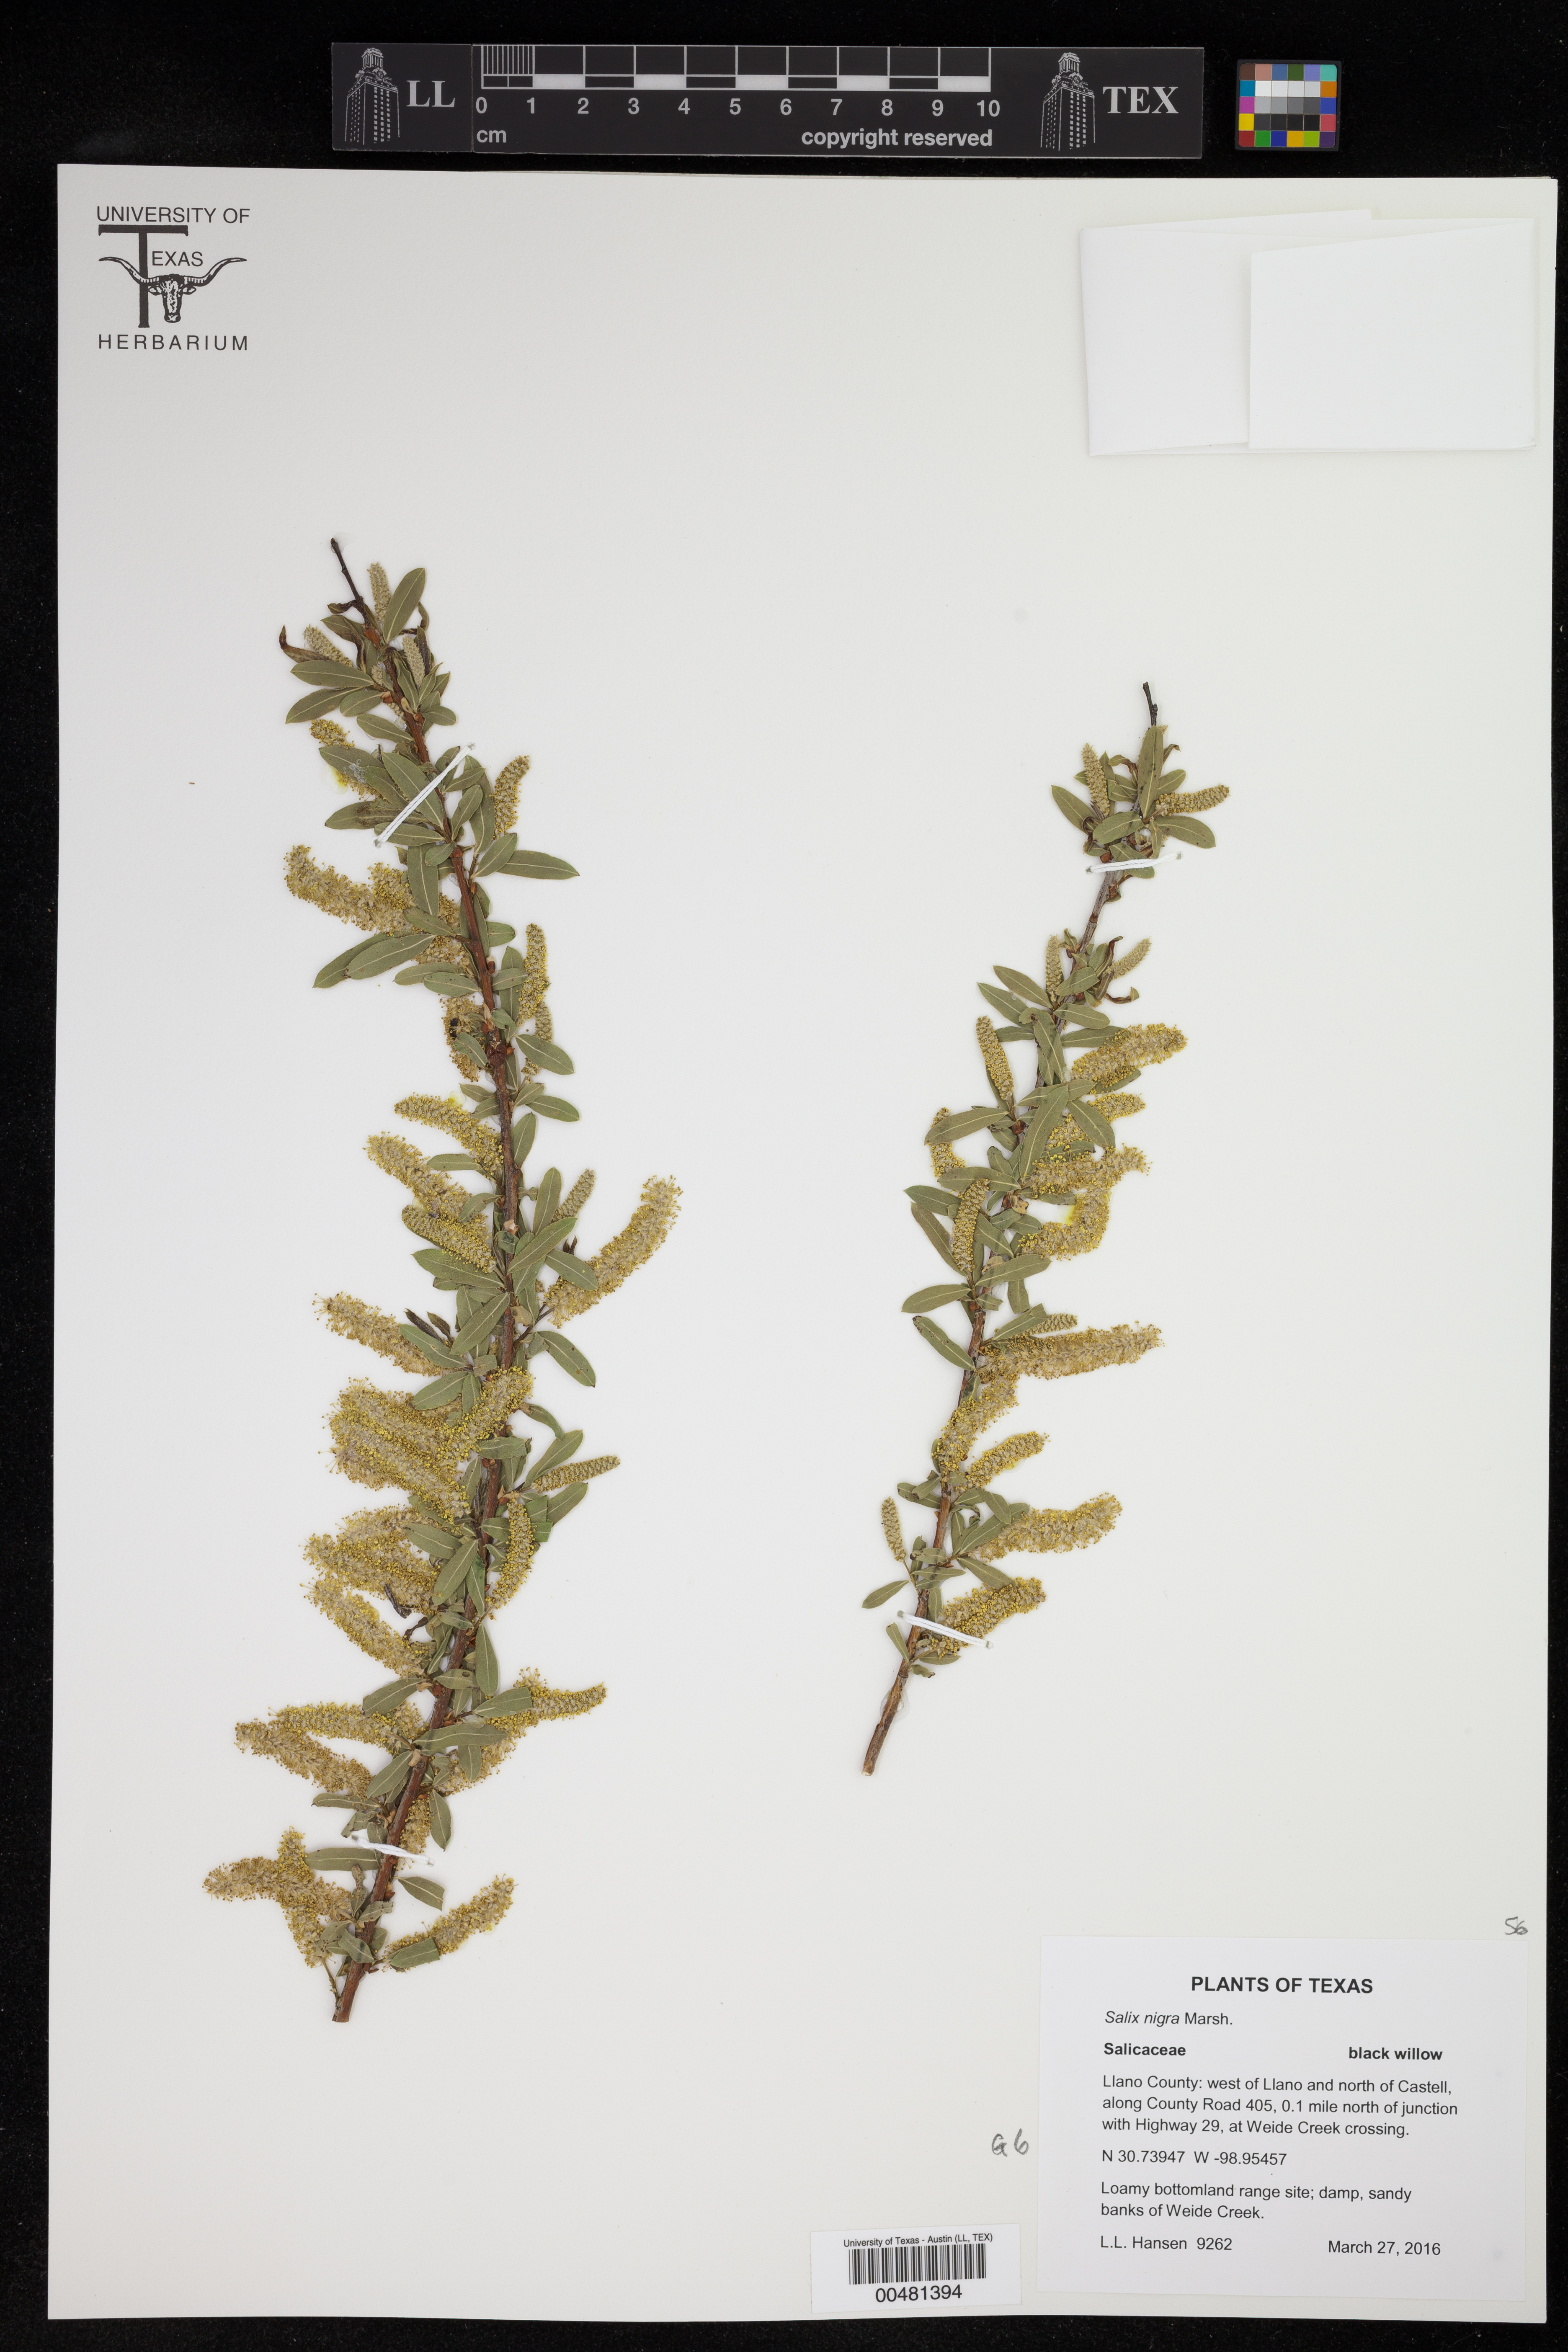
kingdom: Plantae
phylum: Tracheophyta
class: Magnoliopsida
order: Malpighiales
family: Salicaceae
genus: Salix
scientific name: Salix nigra
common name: Black willow
